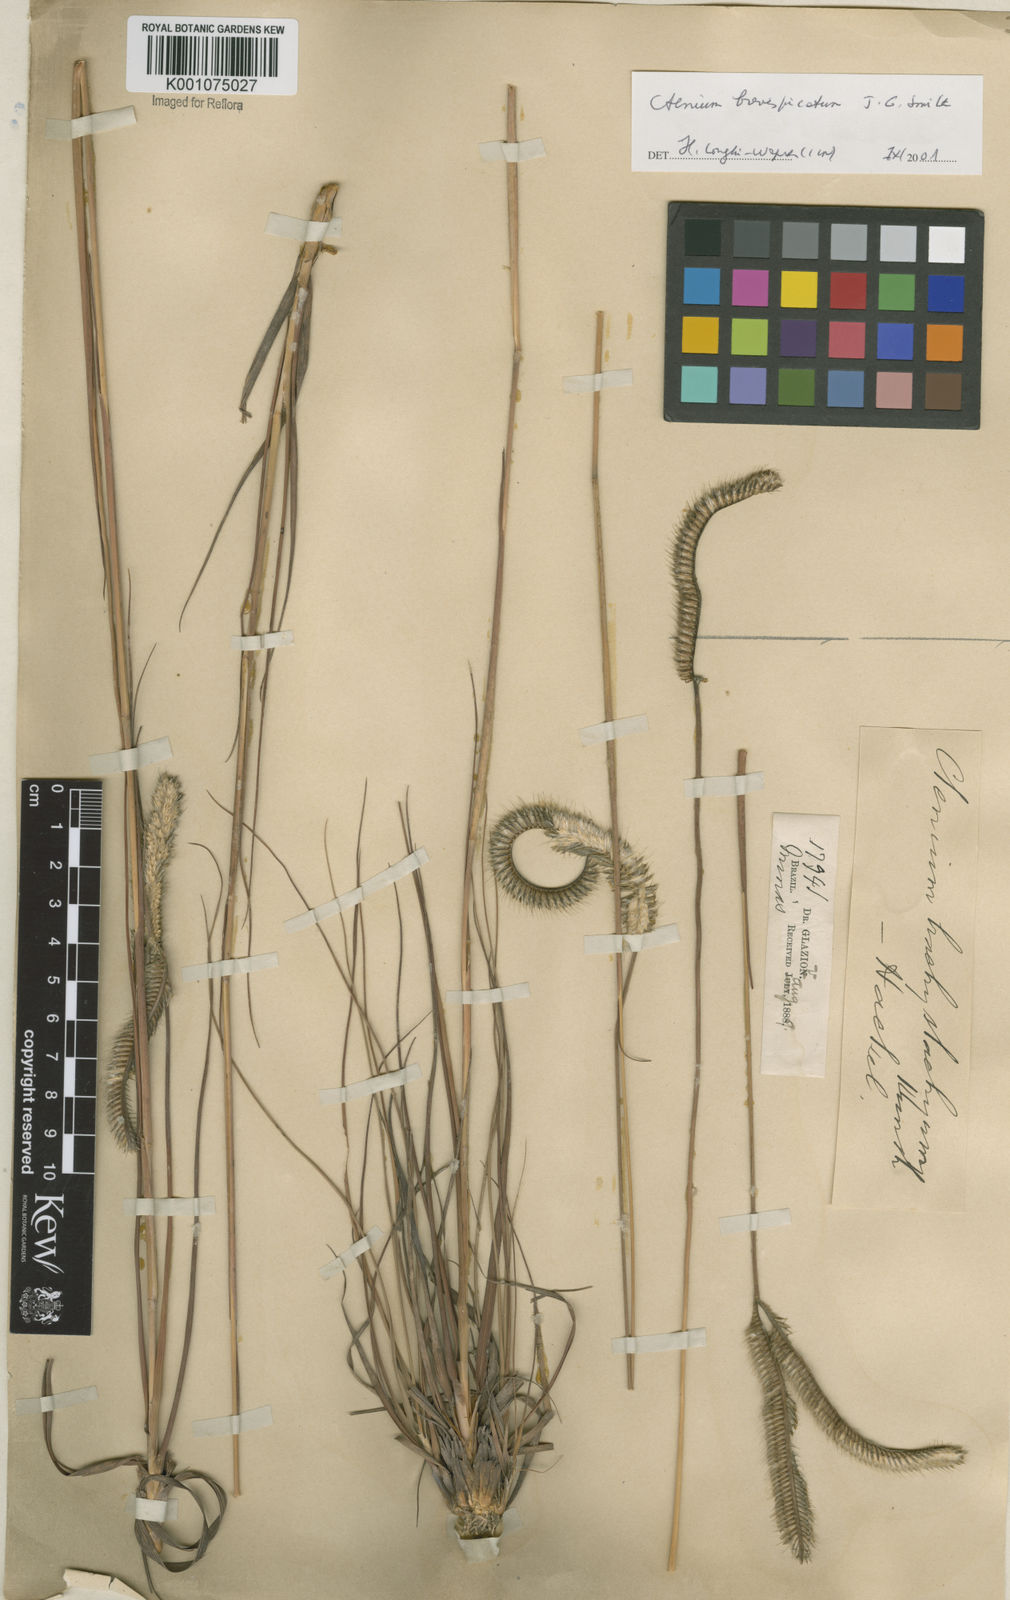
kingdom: Plantae
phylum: Tracheophyta
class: Liliopsida
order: Poales
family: Poaceae
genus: Ctenium
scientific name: Ctenium brevispicatum
